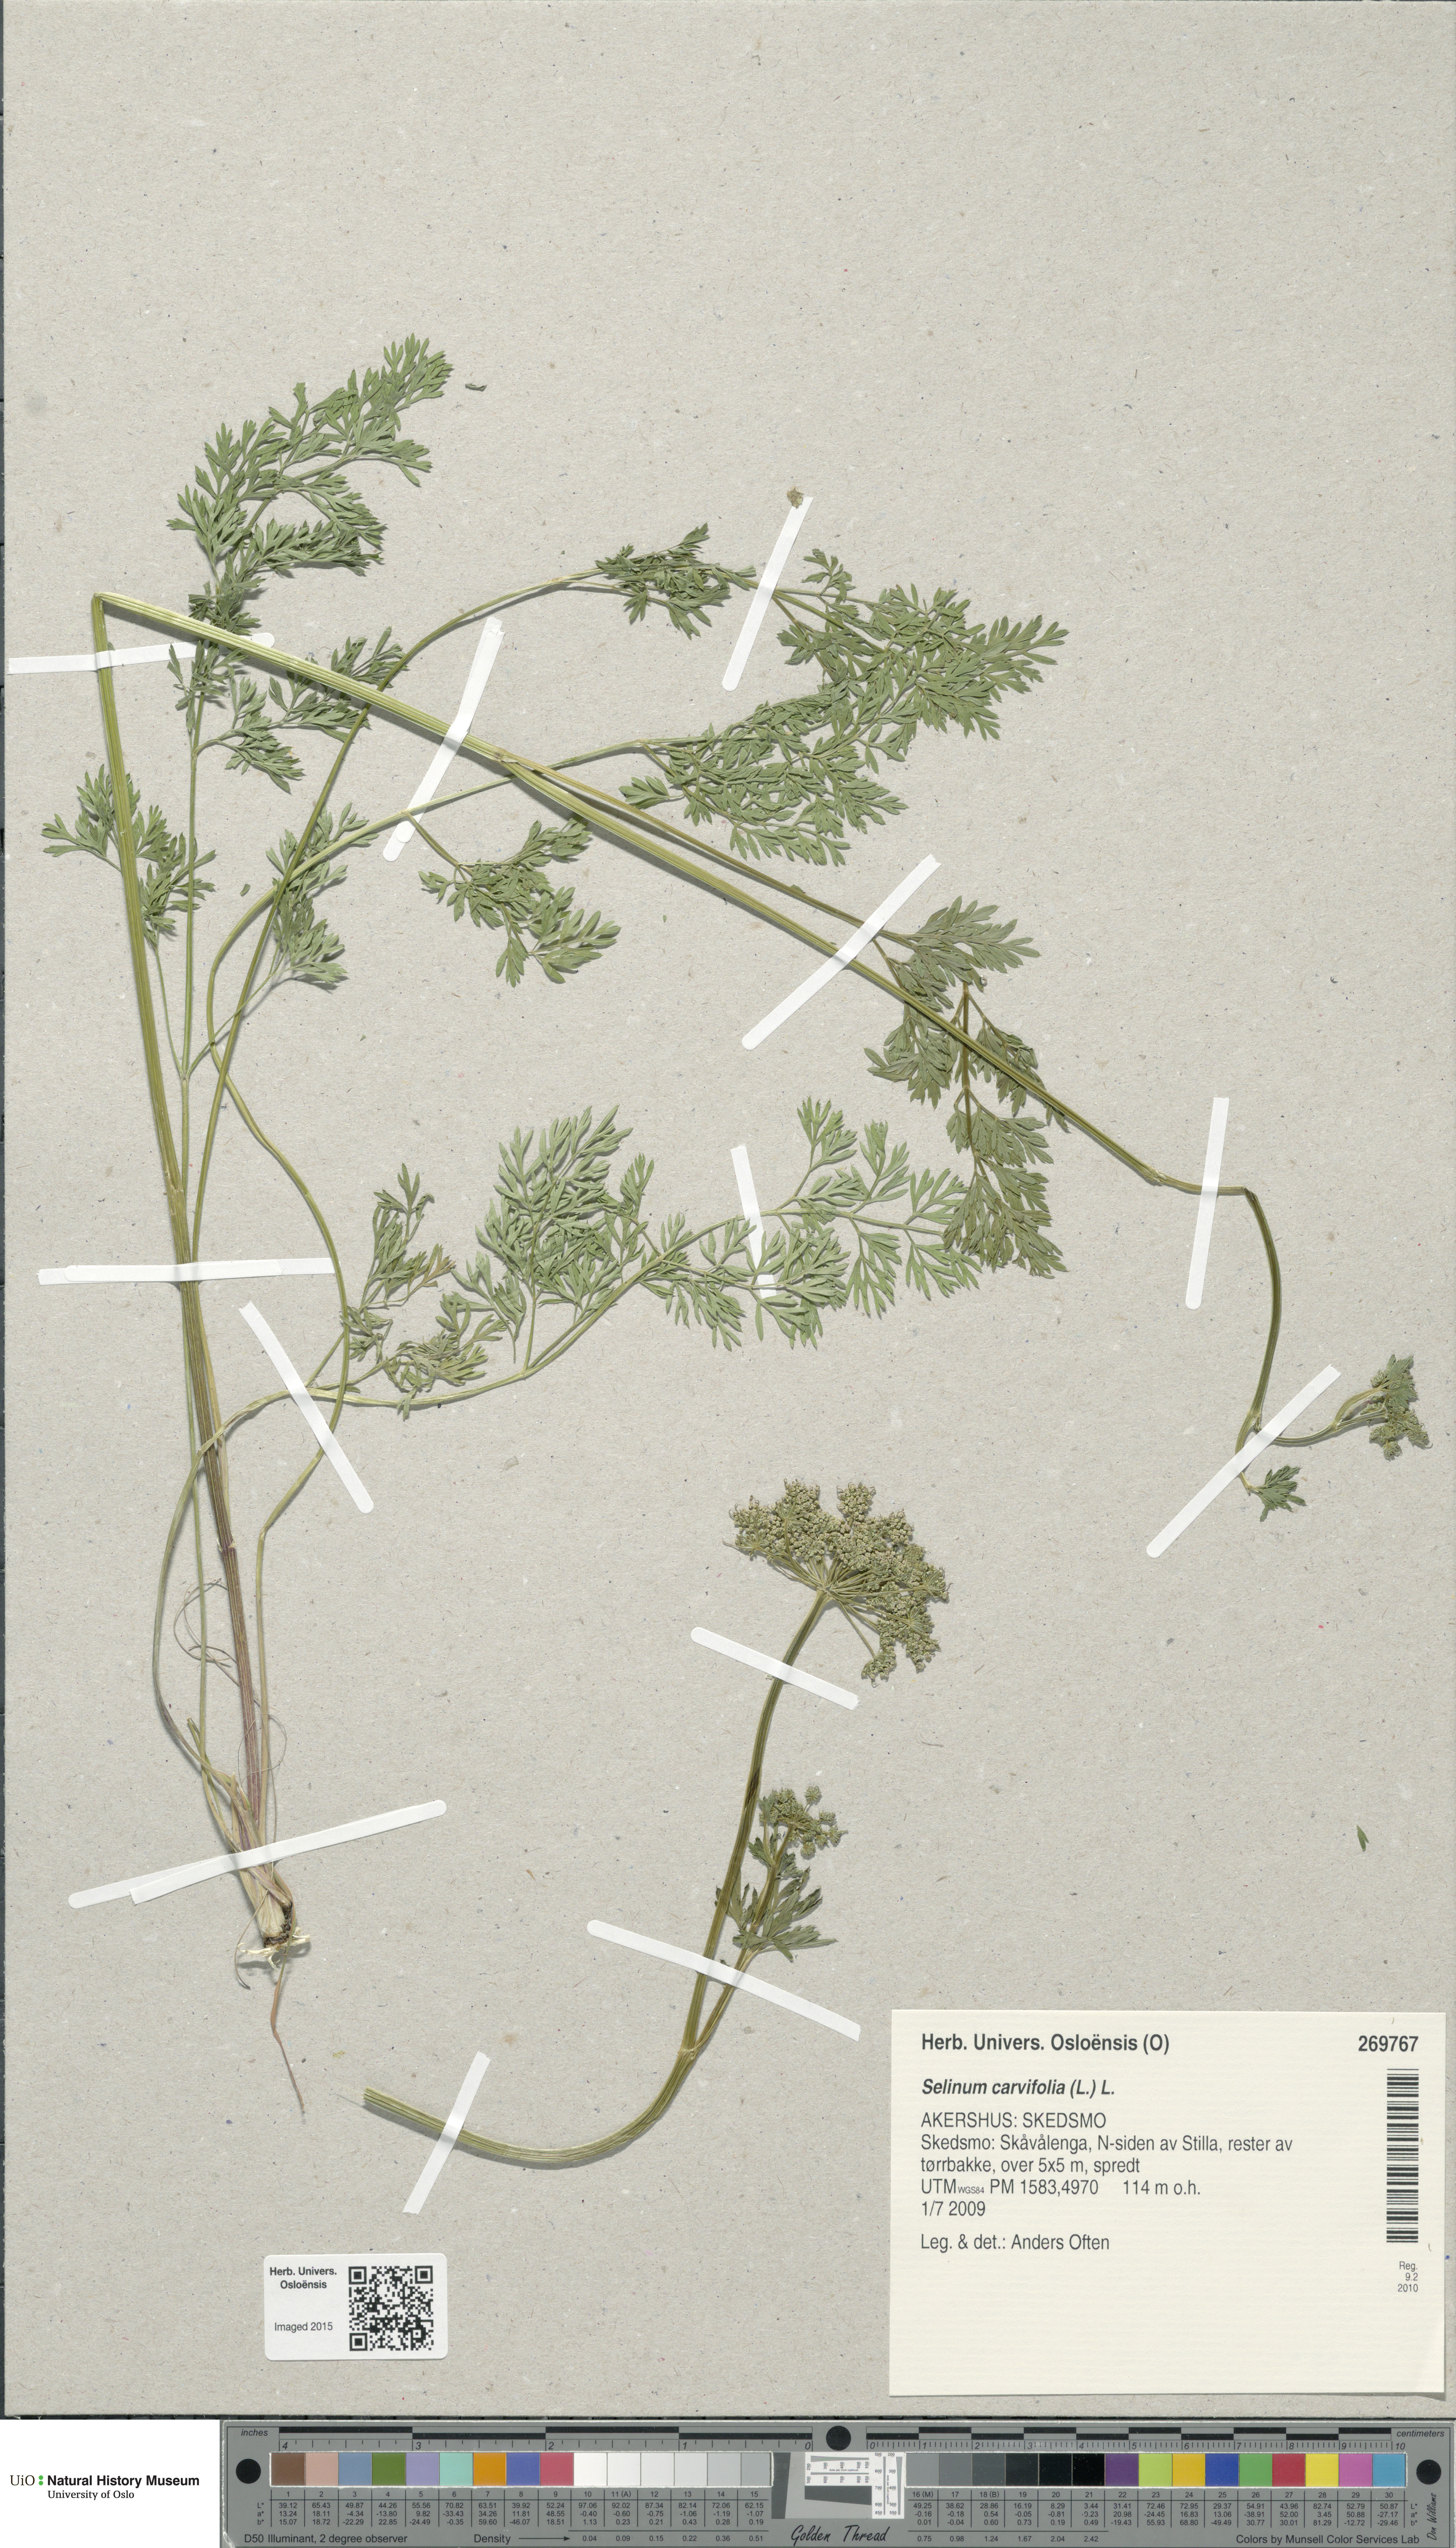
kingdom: Plantae
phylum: Tracheophyta
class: Magnoliopsida
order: Apiales
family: Apiaceae
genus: Selinum
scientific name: Selinum carvifolia
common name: Cambridge milk-parsley
